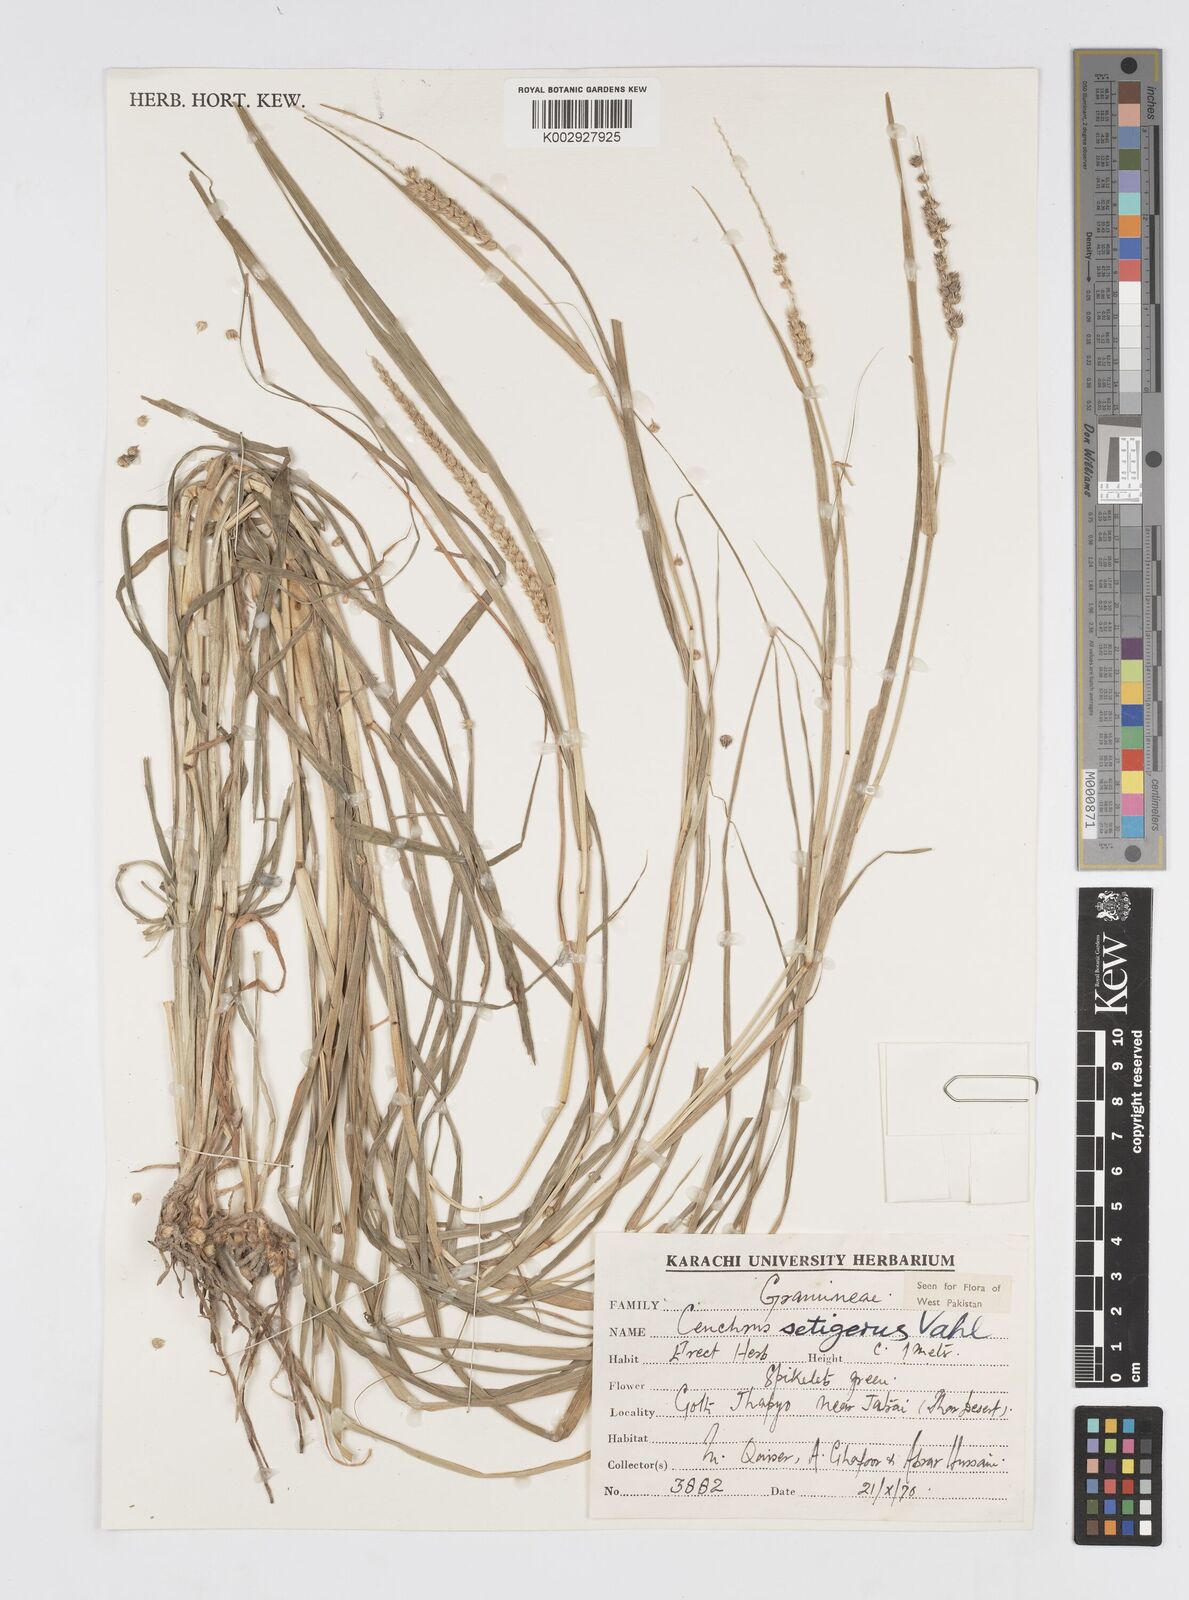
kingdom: Plantae
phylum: Tracheophyta
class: Liliopsida
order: Poales
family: Poaceae
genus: Cenchrus
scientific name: Cenchrus setigerus
